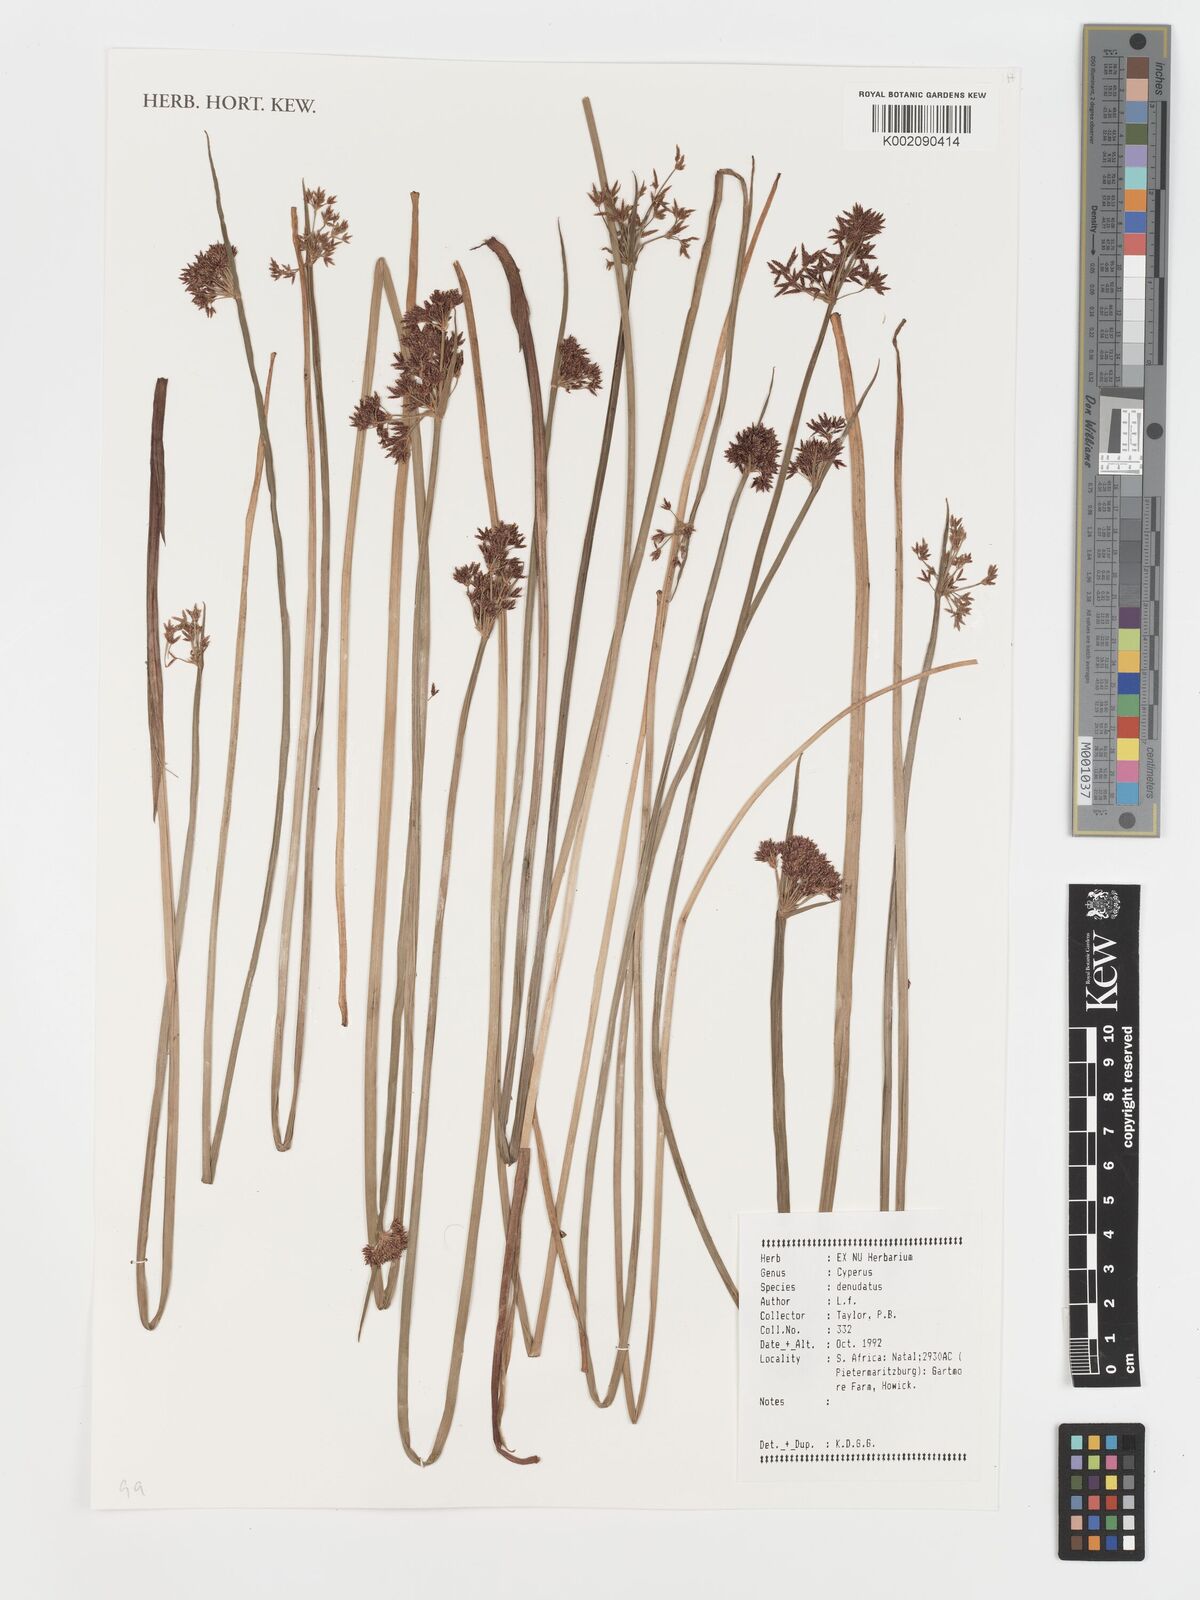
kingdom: Plantae
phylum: Tracheophyta
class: Liliopsida
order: Poales
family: Cyperaceae
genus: Cyperus
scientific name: Cyperus denudatus
